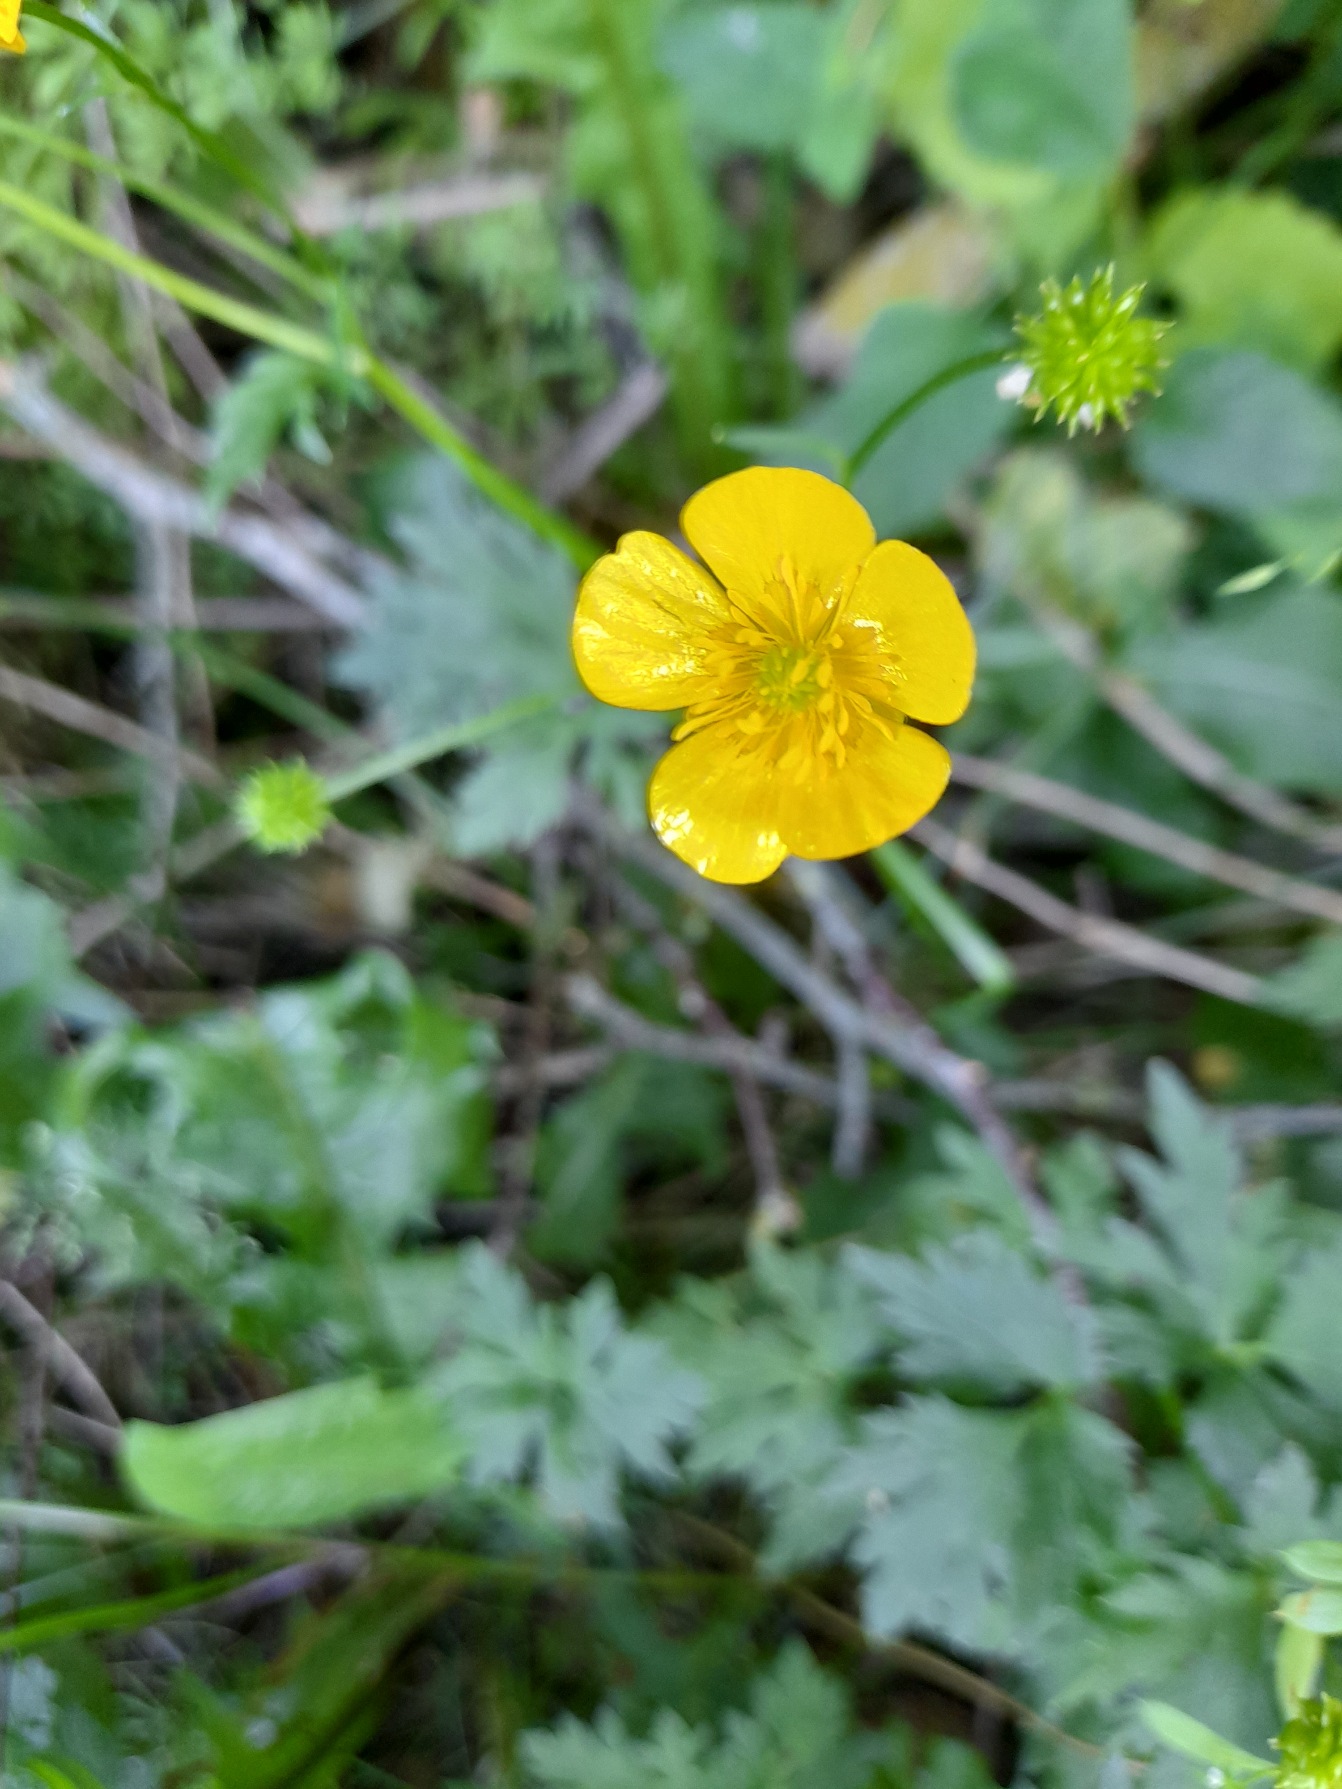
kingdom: Plantae
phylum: Tracheophyta
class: Magnoliopsida
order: Ranunculales
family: Ranunculaceae
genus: Ranunculus
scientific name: Ranunculus repens
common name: Lav ranunkel
